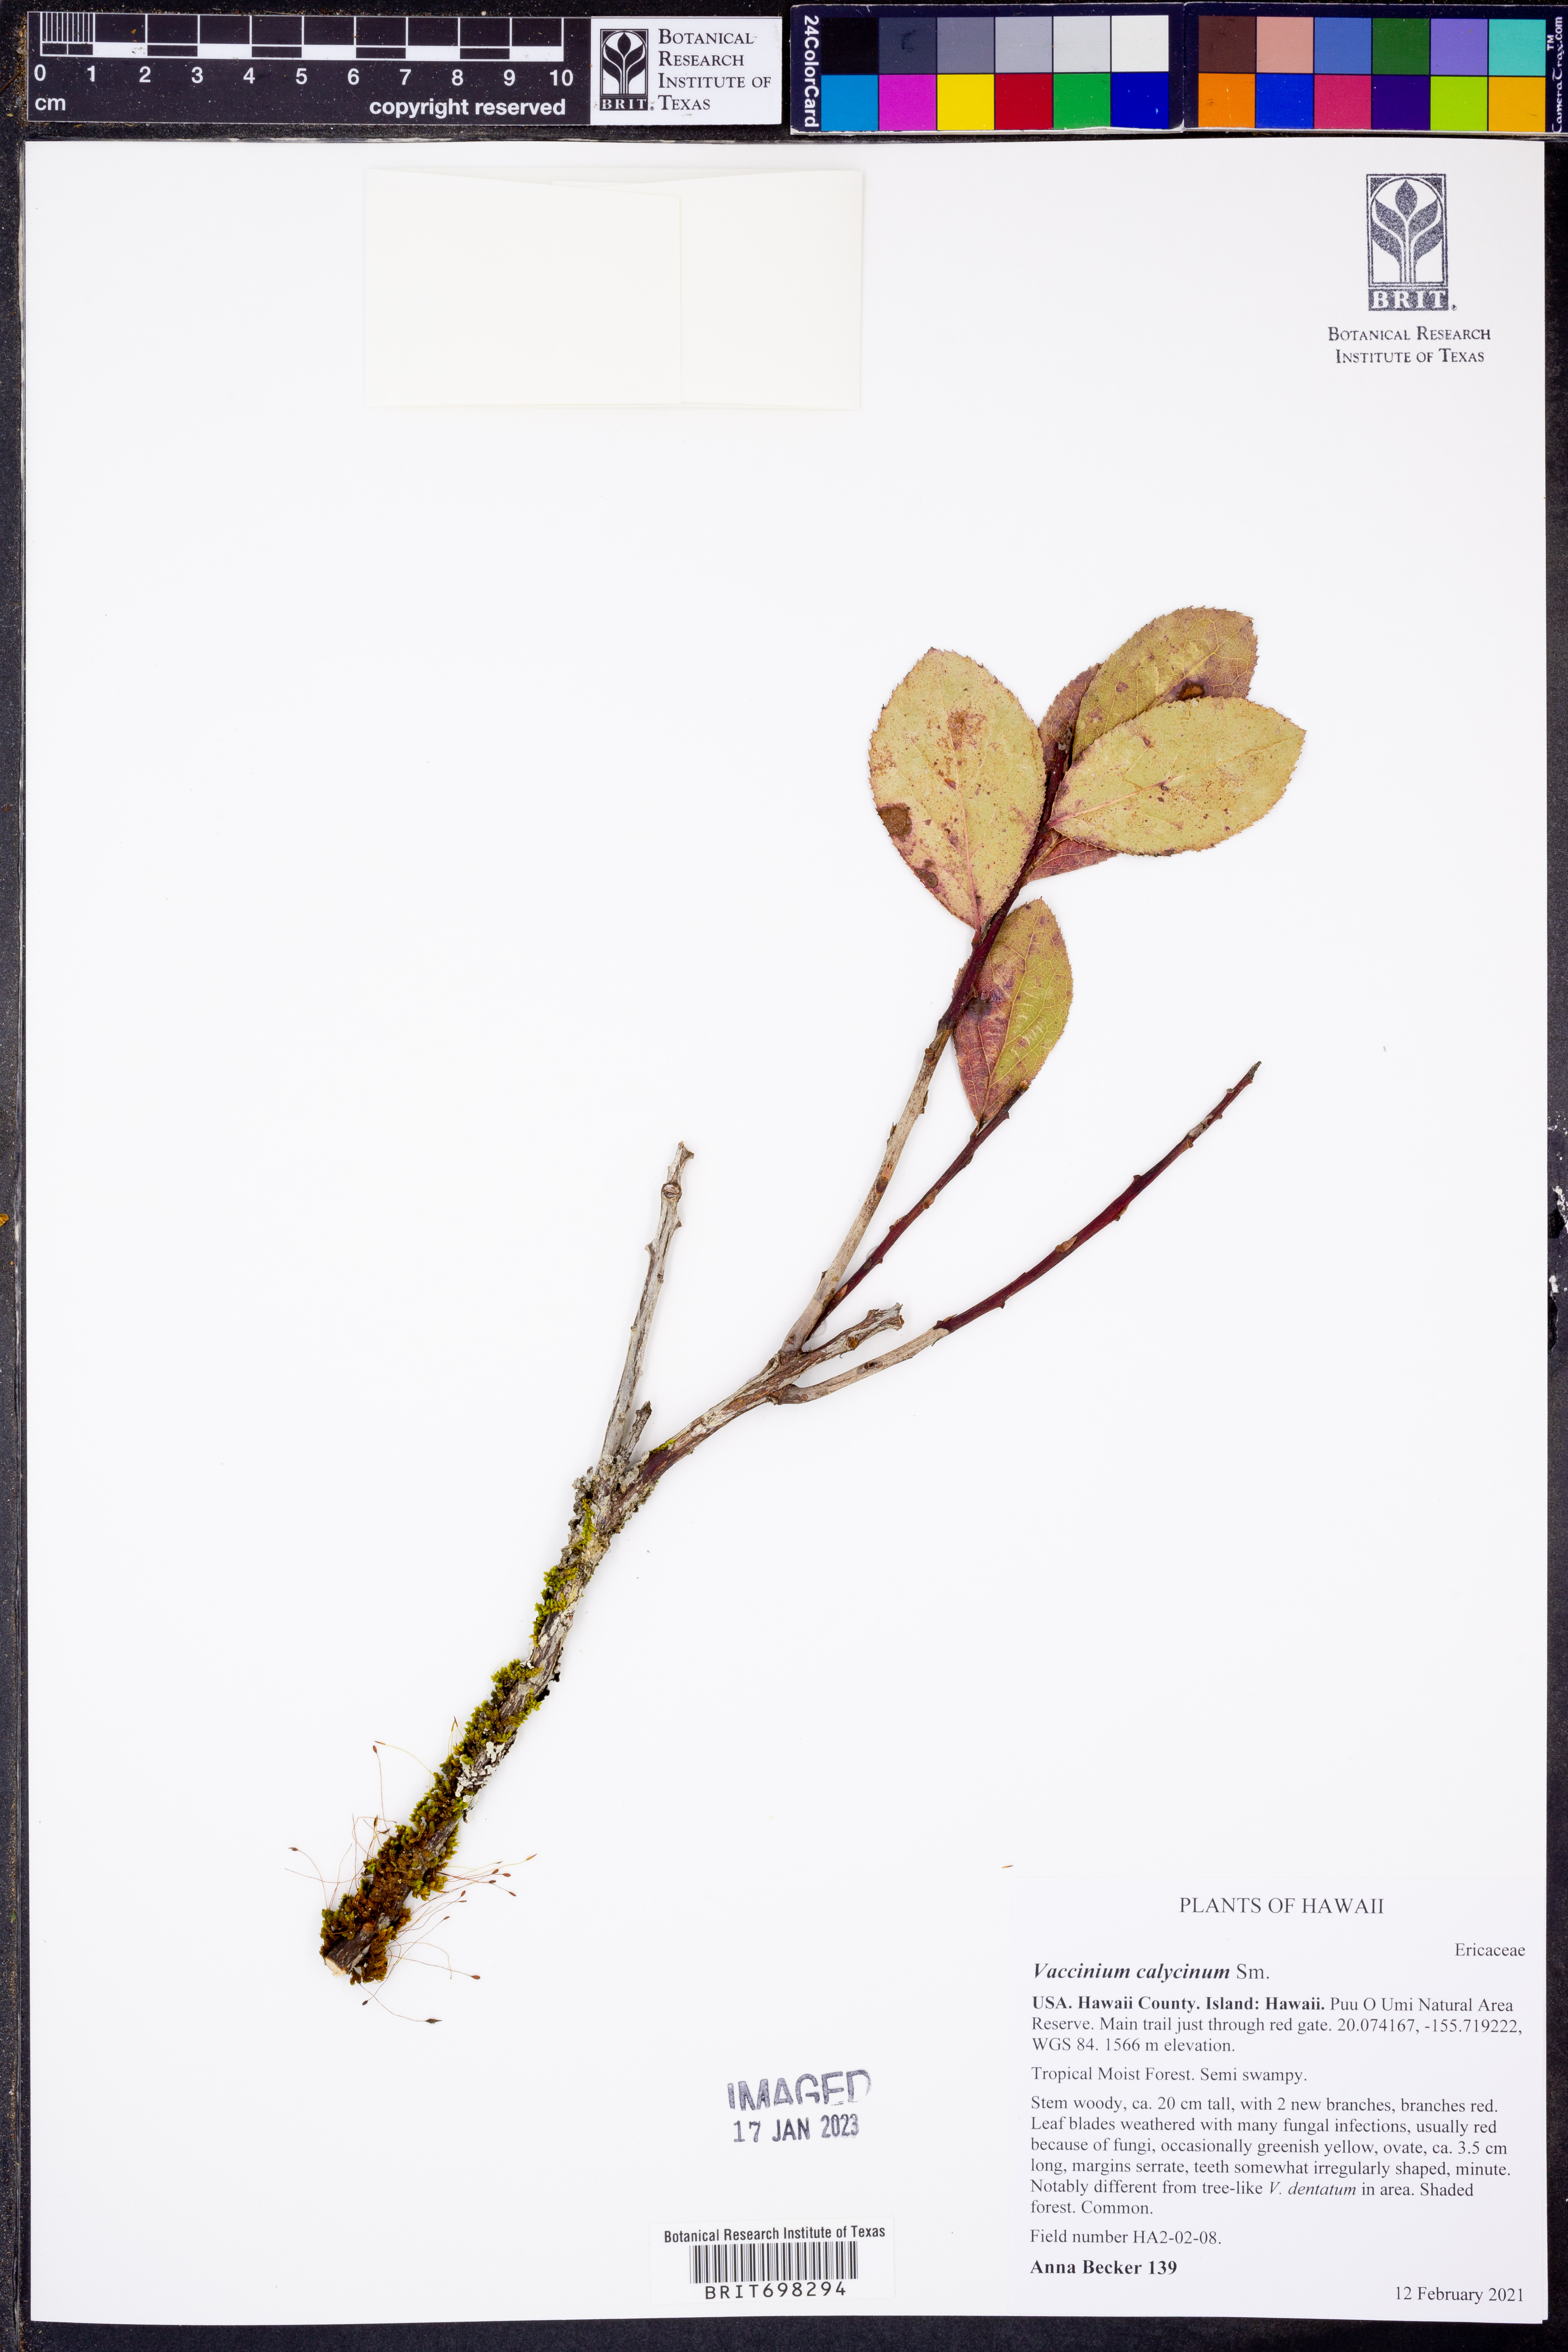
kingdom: Plantae
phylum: Tracheophyta
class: Magnoliopsida
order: Ericales
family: Ericaceae
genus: Vaccinium
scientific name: Vaccinium calycinum
